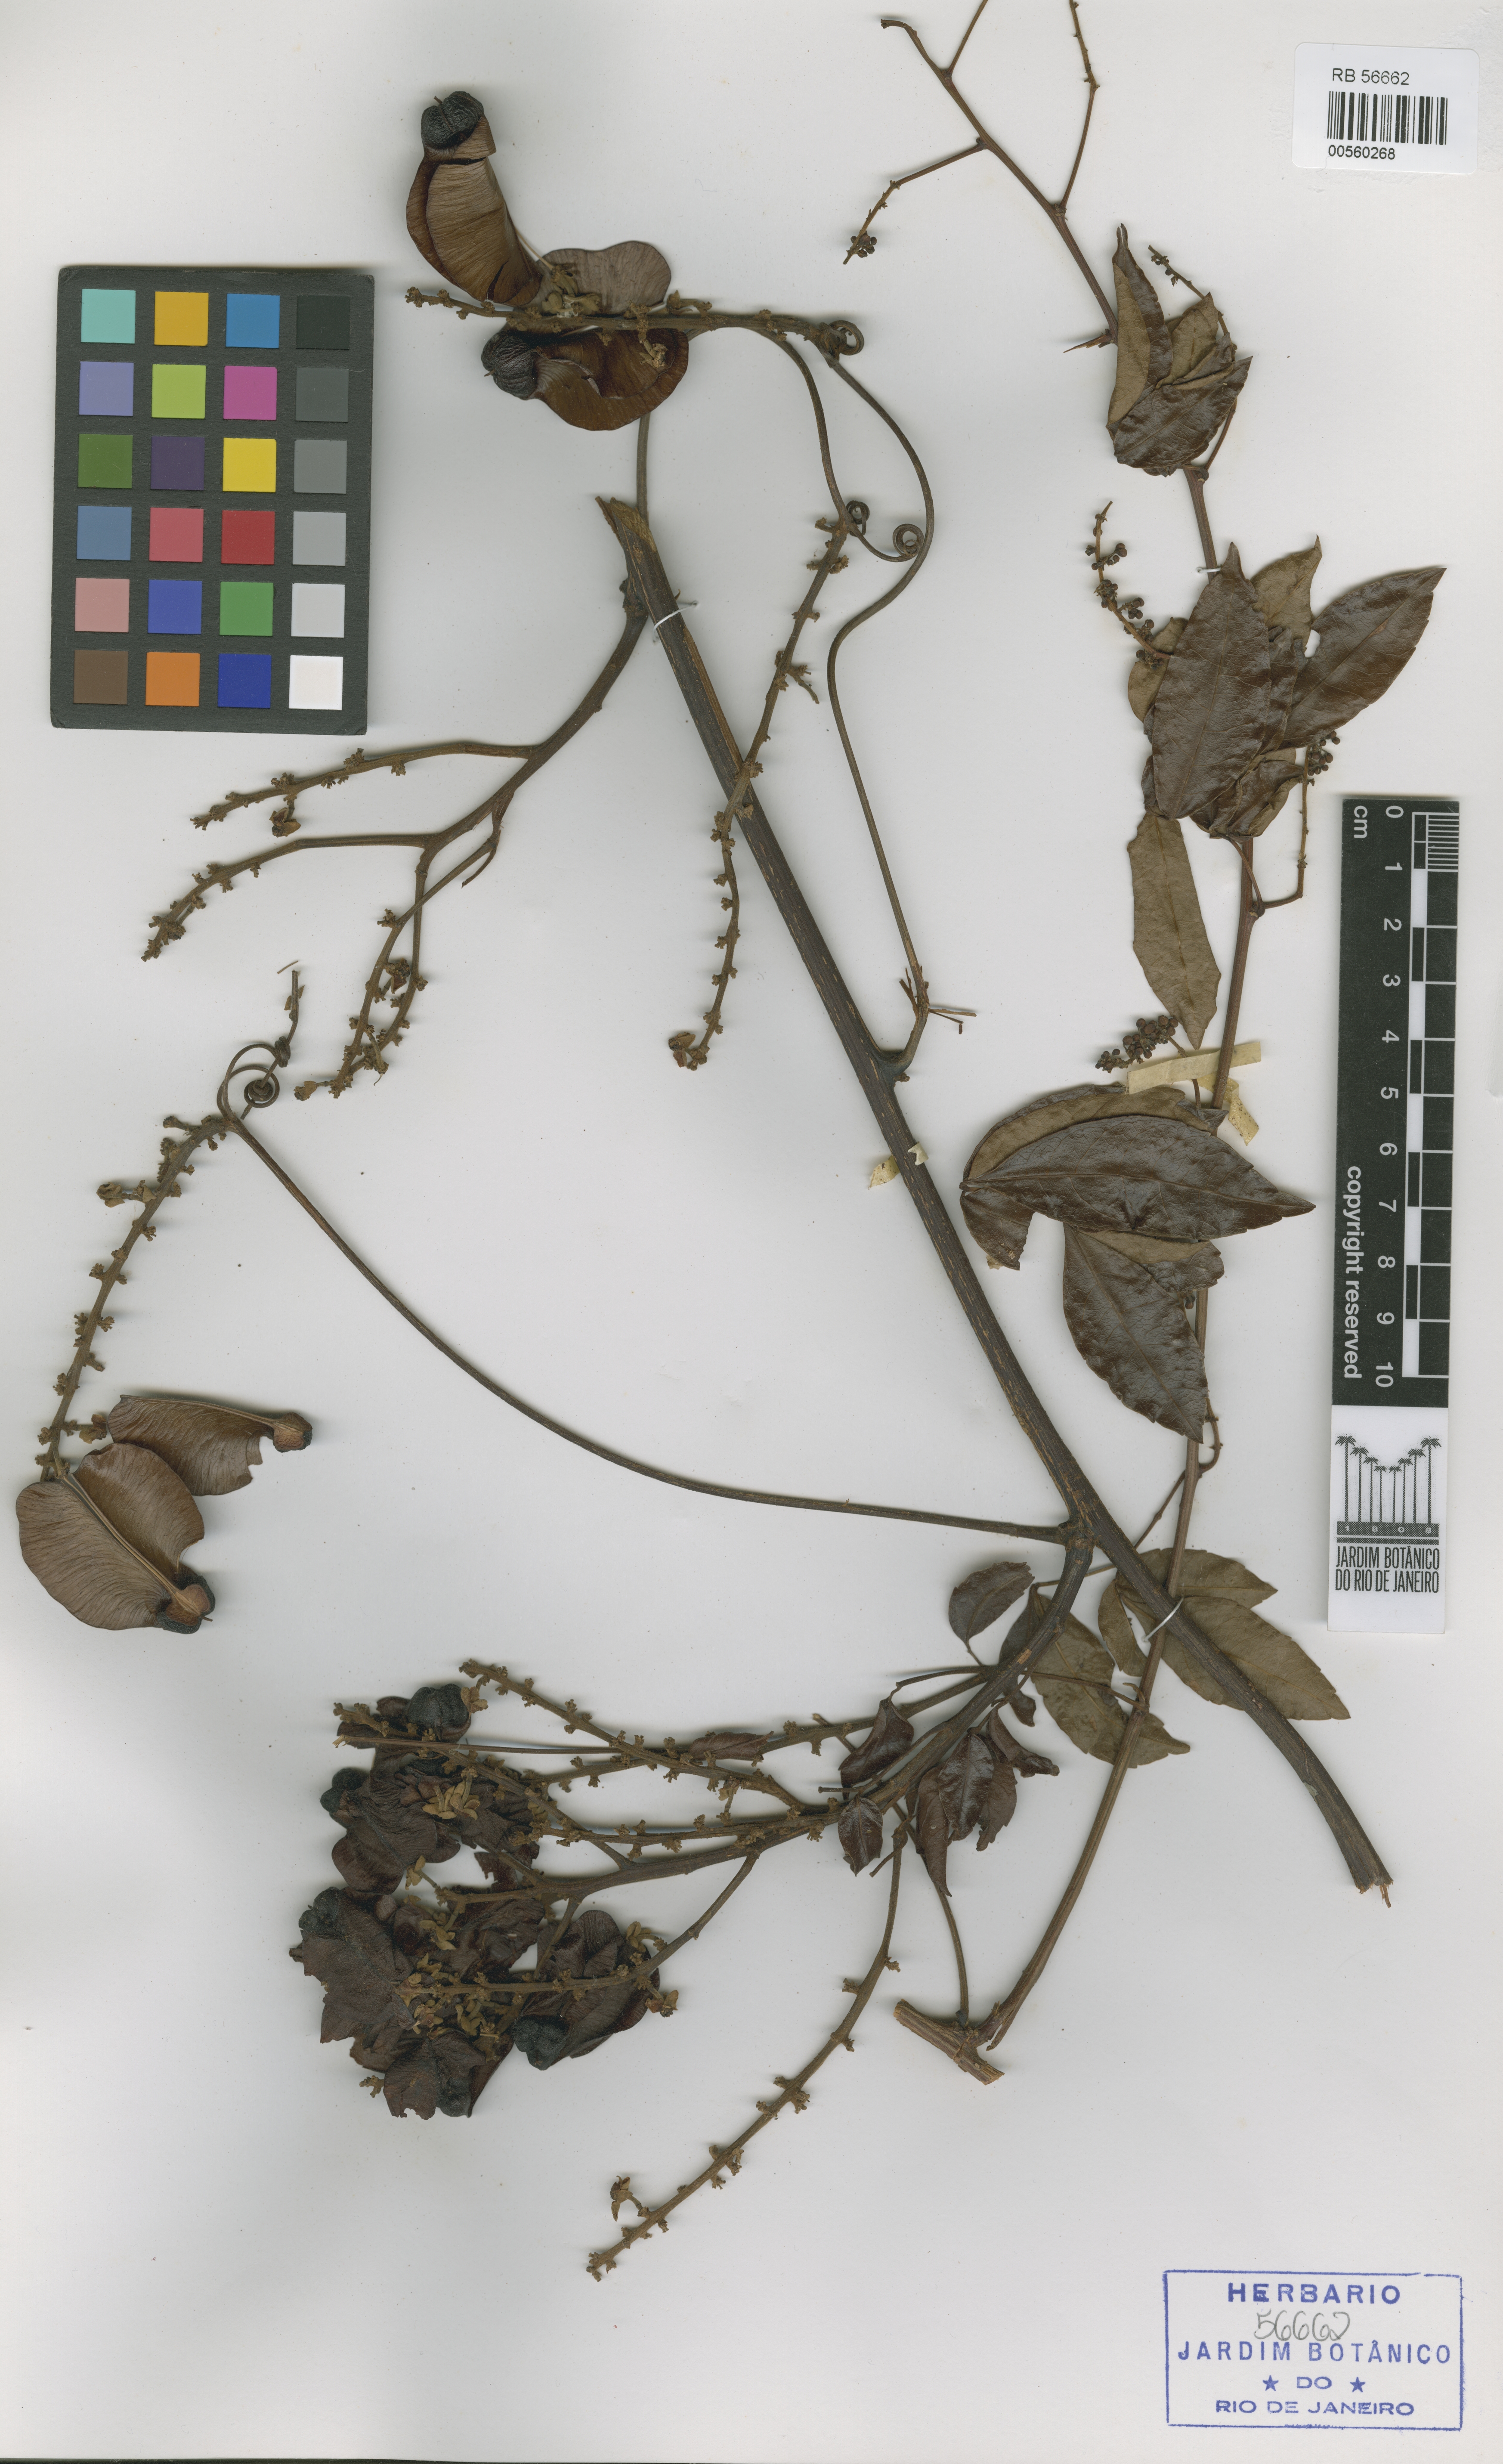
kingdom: Plantae
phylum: Tracheophyta
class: Magnoliopsida
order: Sapindales
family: Sapindaceae
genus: Serjania
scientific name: Serjania bradeana
